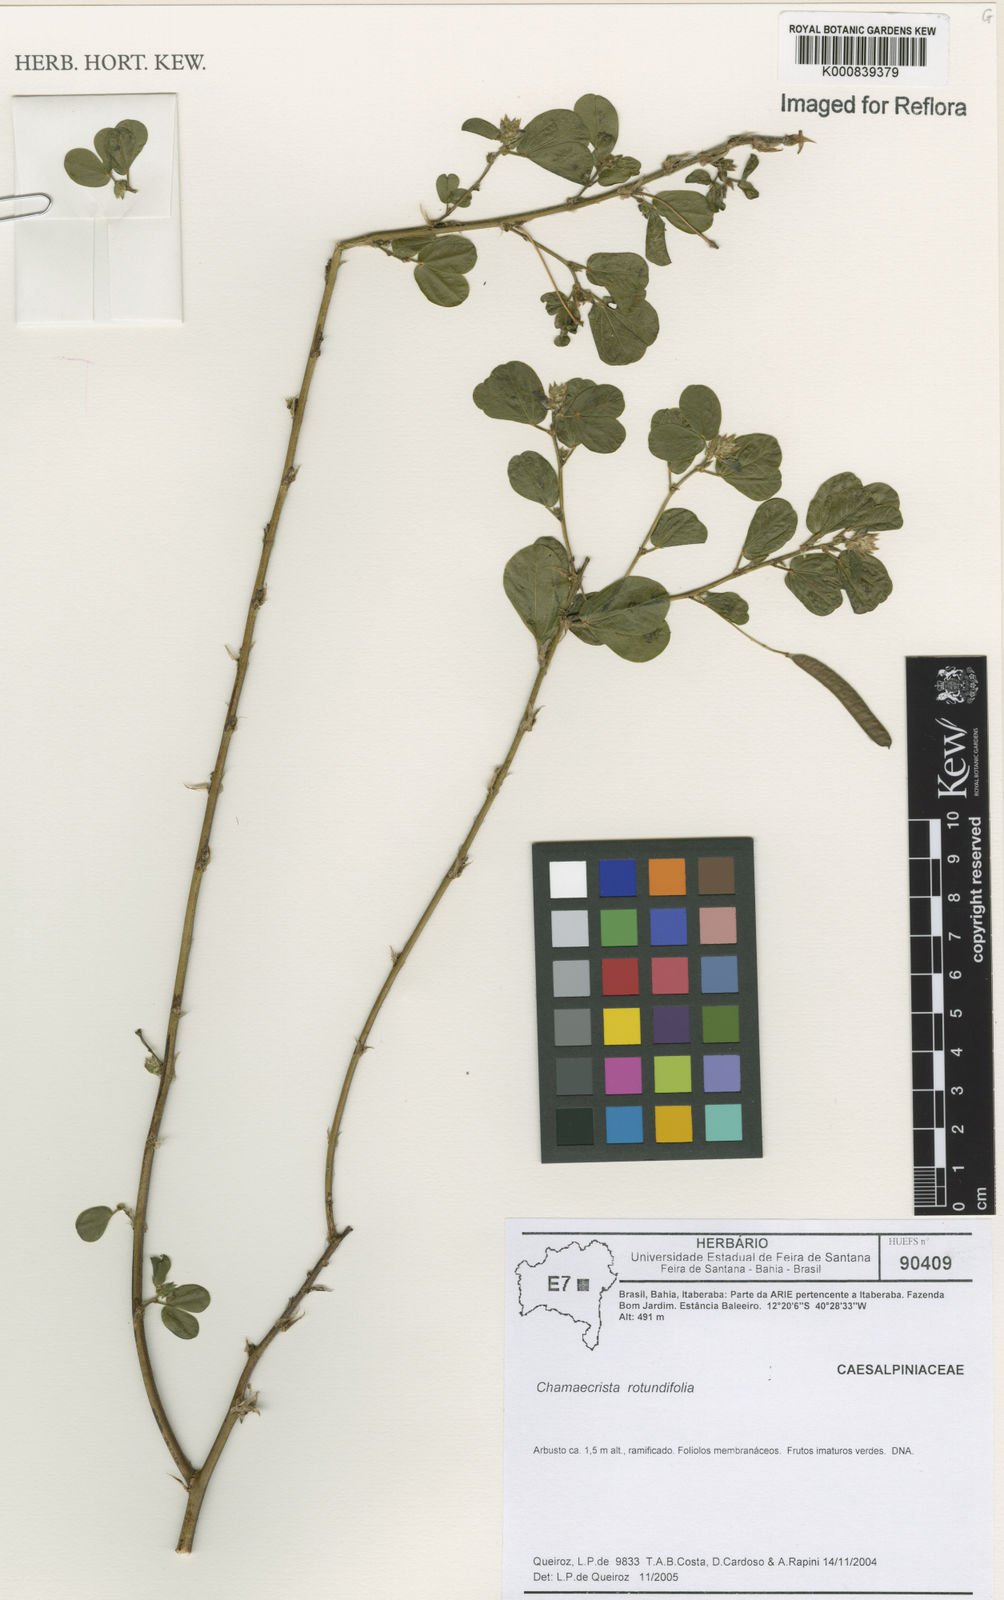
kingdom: Plantae
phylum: Tracheophyta
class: Magnoliopsida
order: Fabales
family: Fabaceae
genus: Chamaecrista
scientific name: Chamaecrista rotundifolia
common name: Round-leaf cassia
